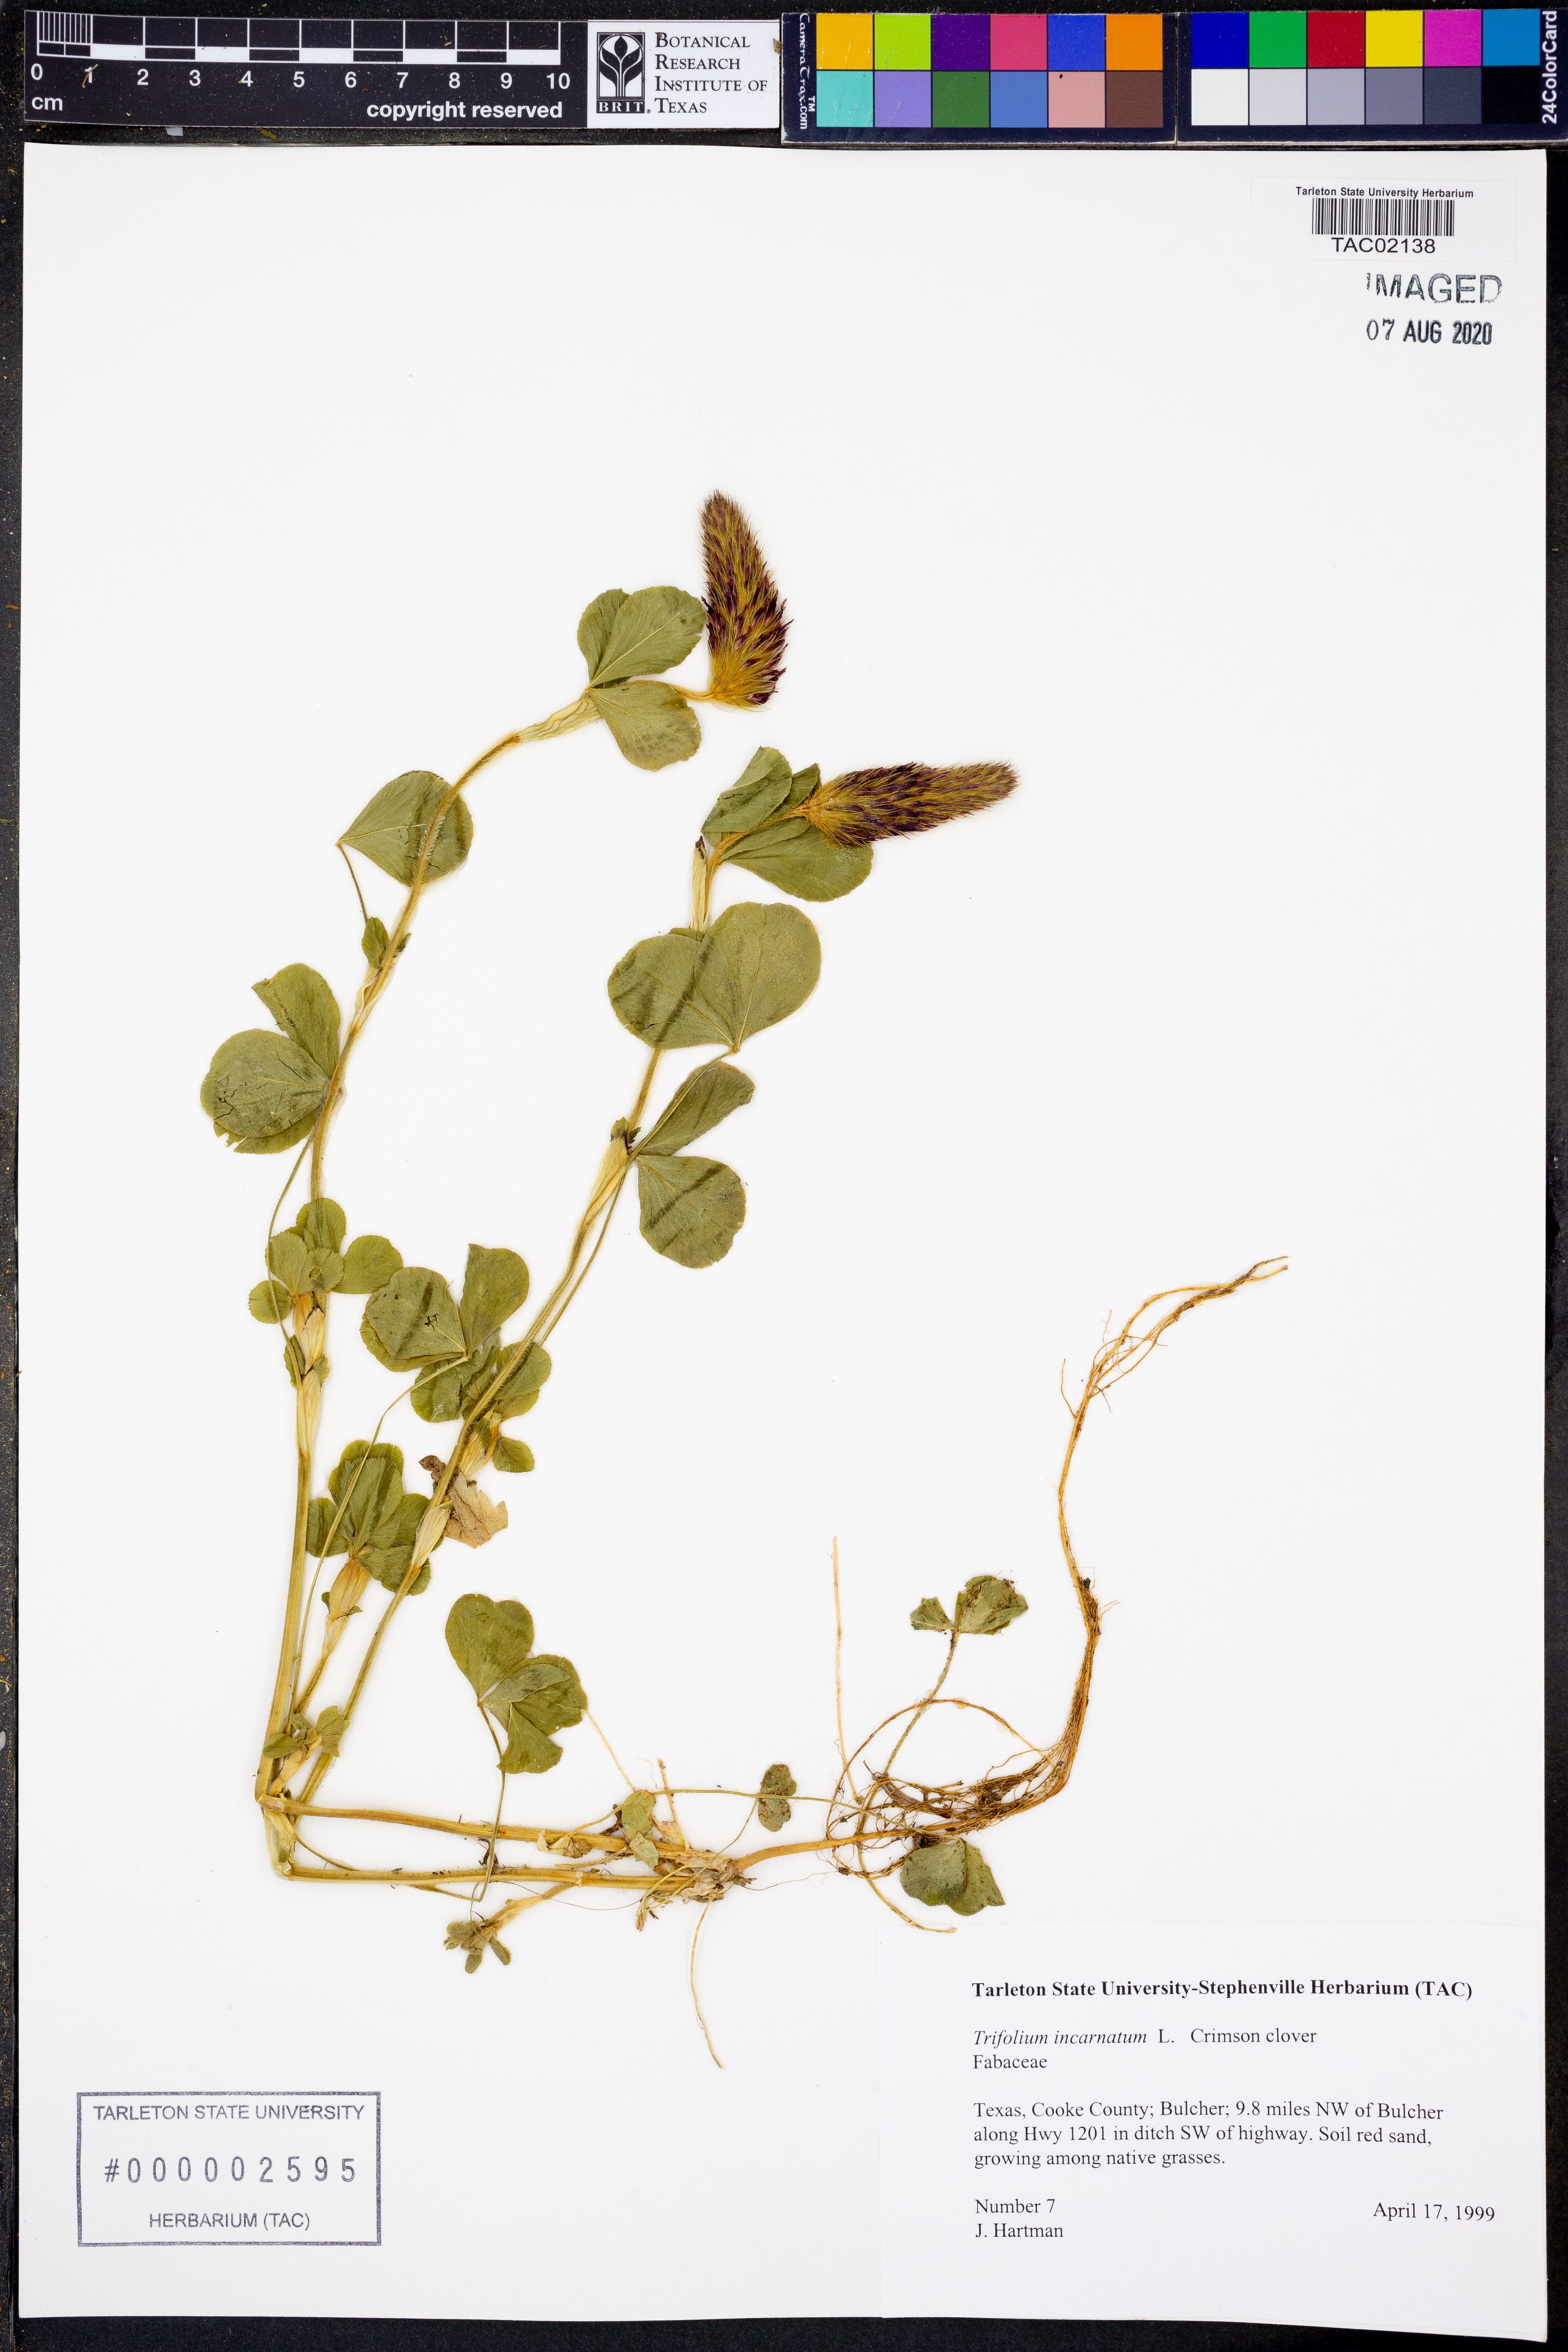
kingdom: Plantae
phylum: Tracheophyta
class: Magnoliopsida
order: Fabales
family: Fabaceae
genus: Trifolium
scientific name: Trifolium incarnatum
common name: Crimson clover
